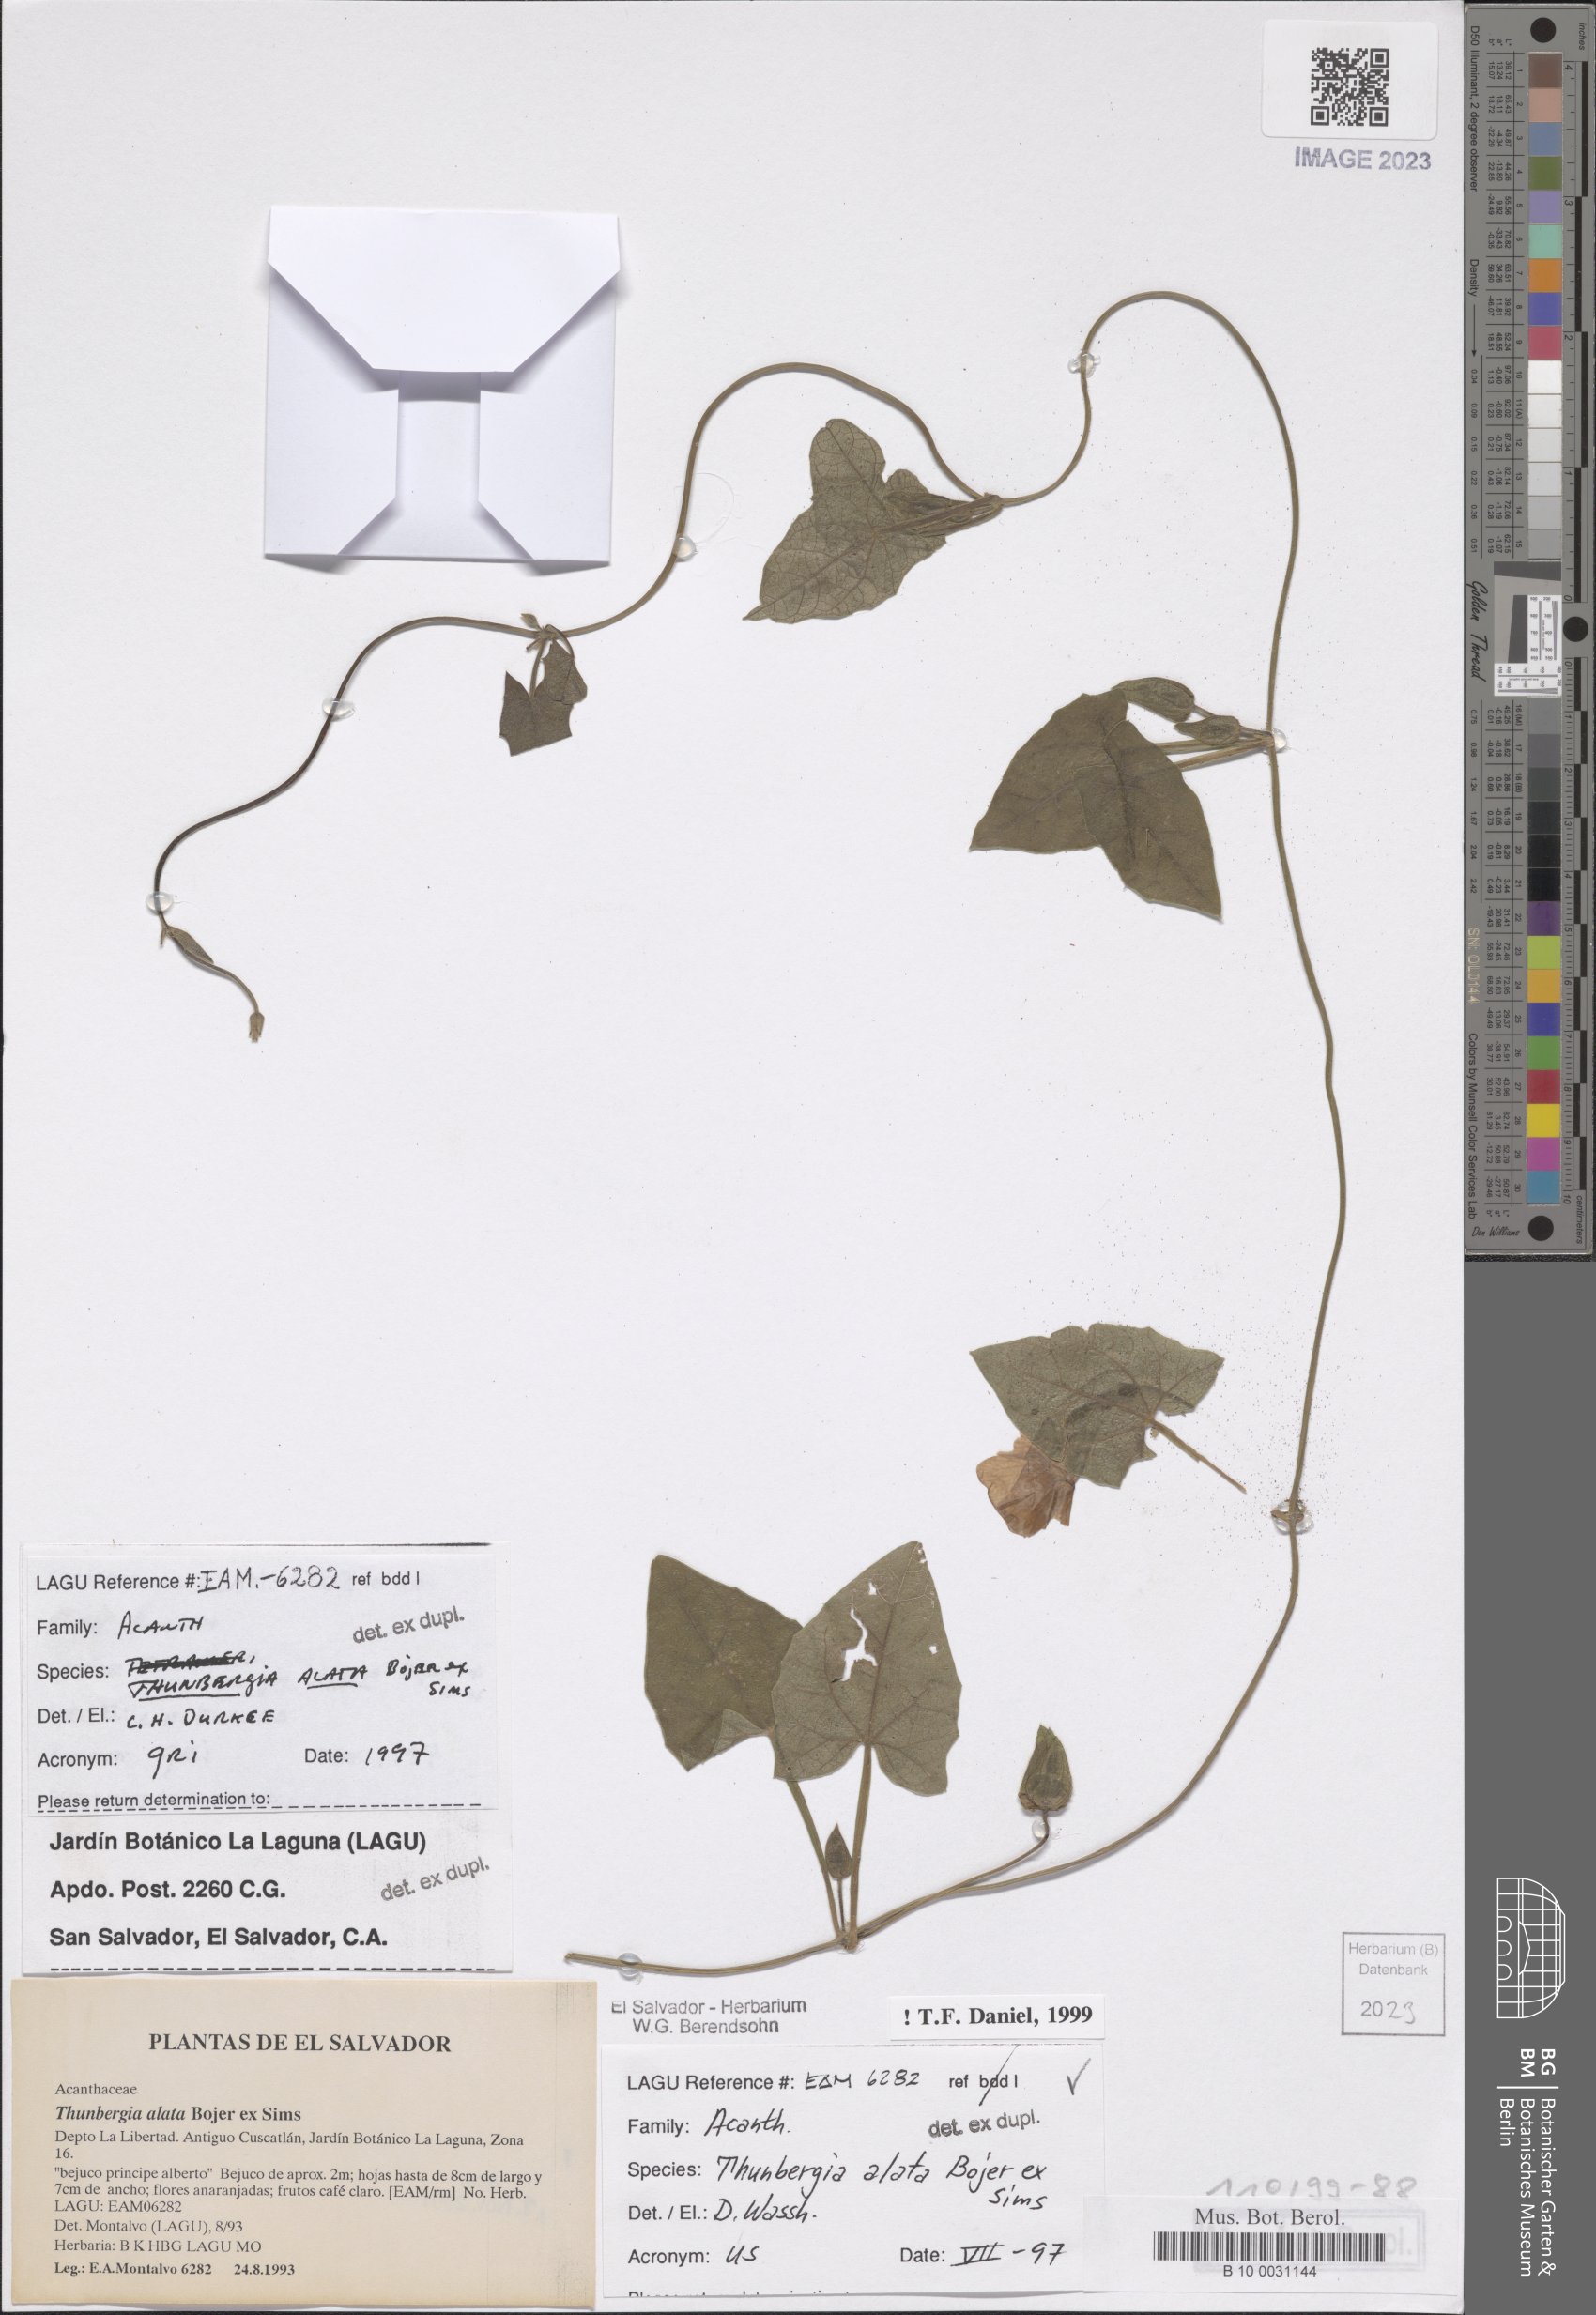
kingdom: Plantae
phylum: Tracheophyta
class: Magnoliopsida
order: Lamiales
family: Acanthaceae
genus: Thunbergia
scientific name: Thunbergia alata
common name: Blackeyed susan vine
